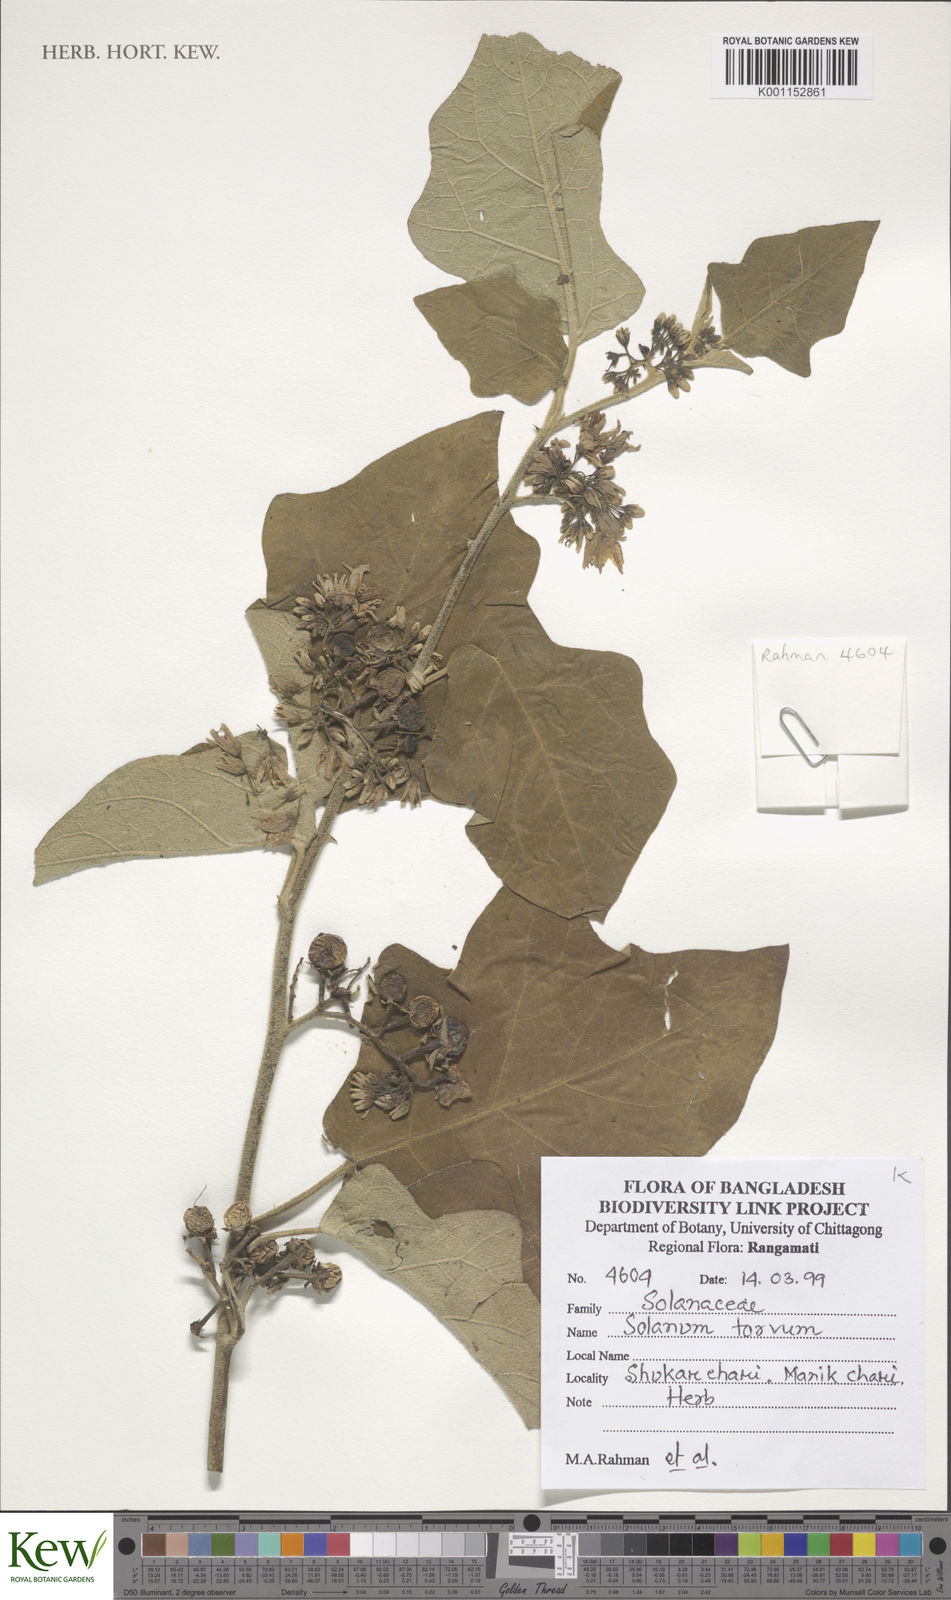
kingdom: Plantae
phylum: Tracheophyta
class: Magnoliopsida
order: Solanales
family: Solanaceae
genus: Solanum
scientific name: Solanum nigrum
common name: Black nightshade
